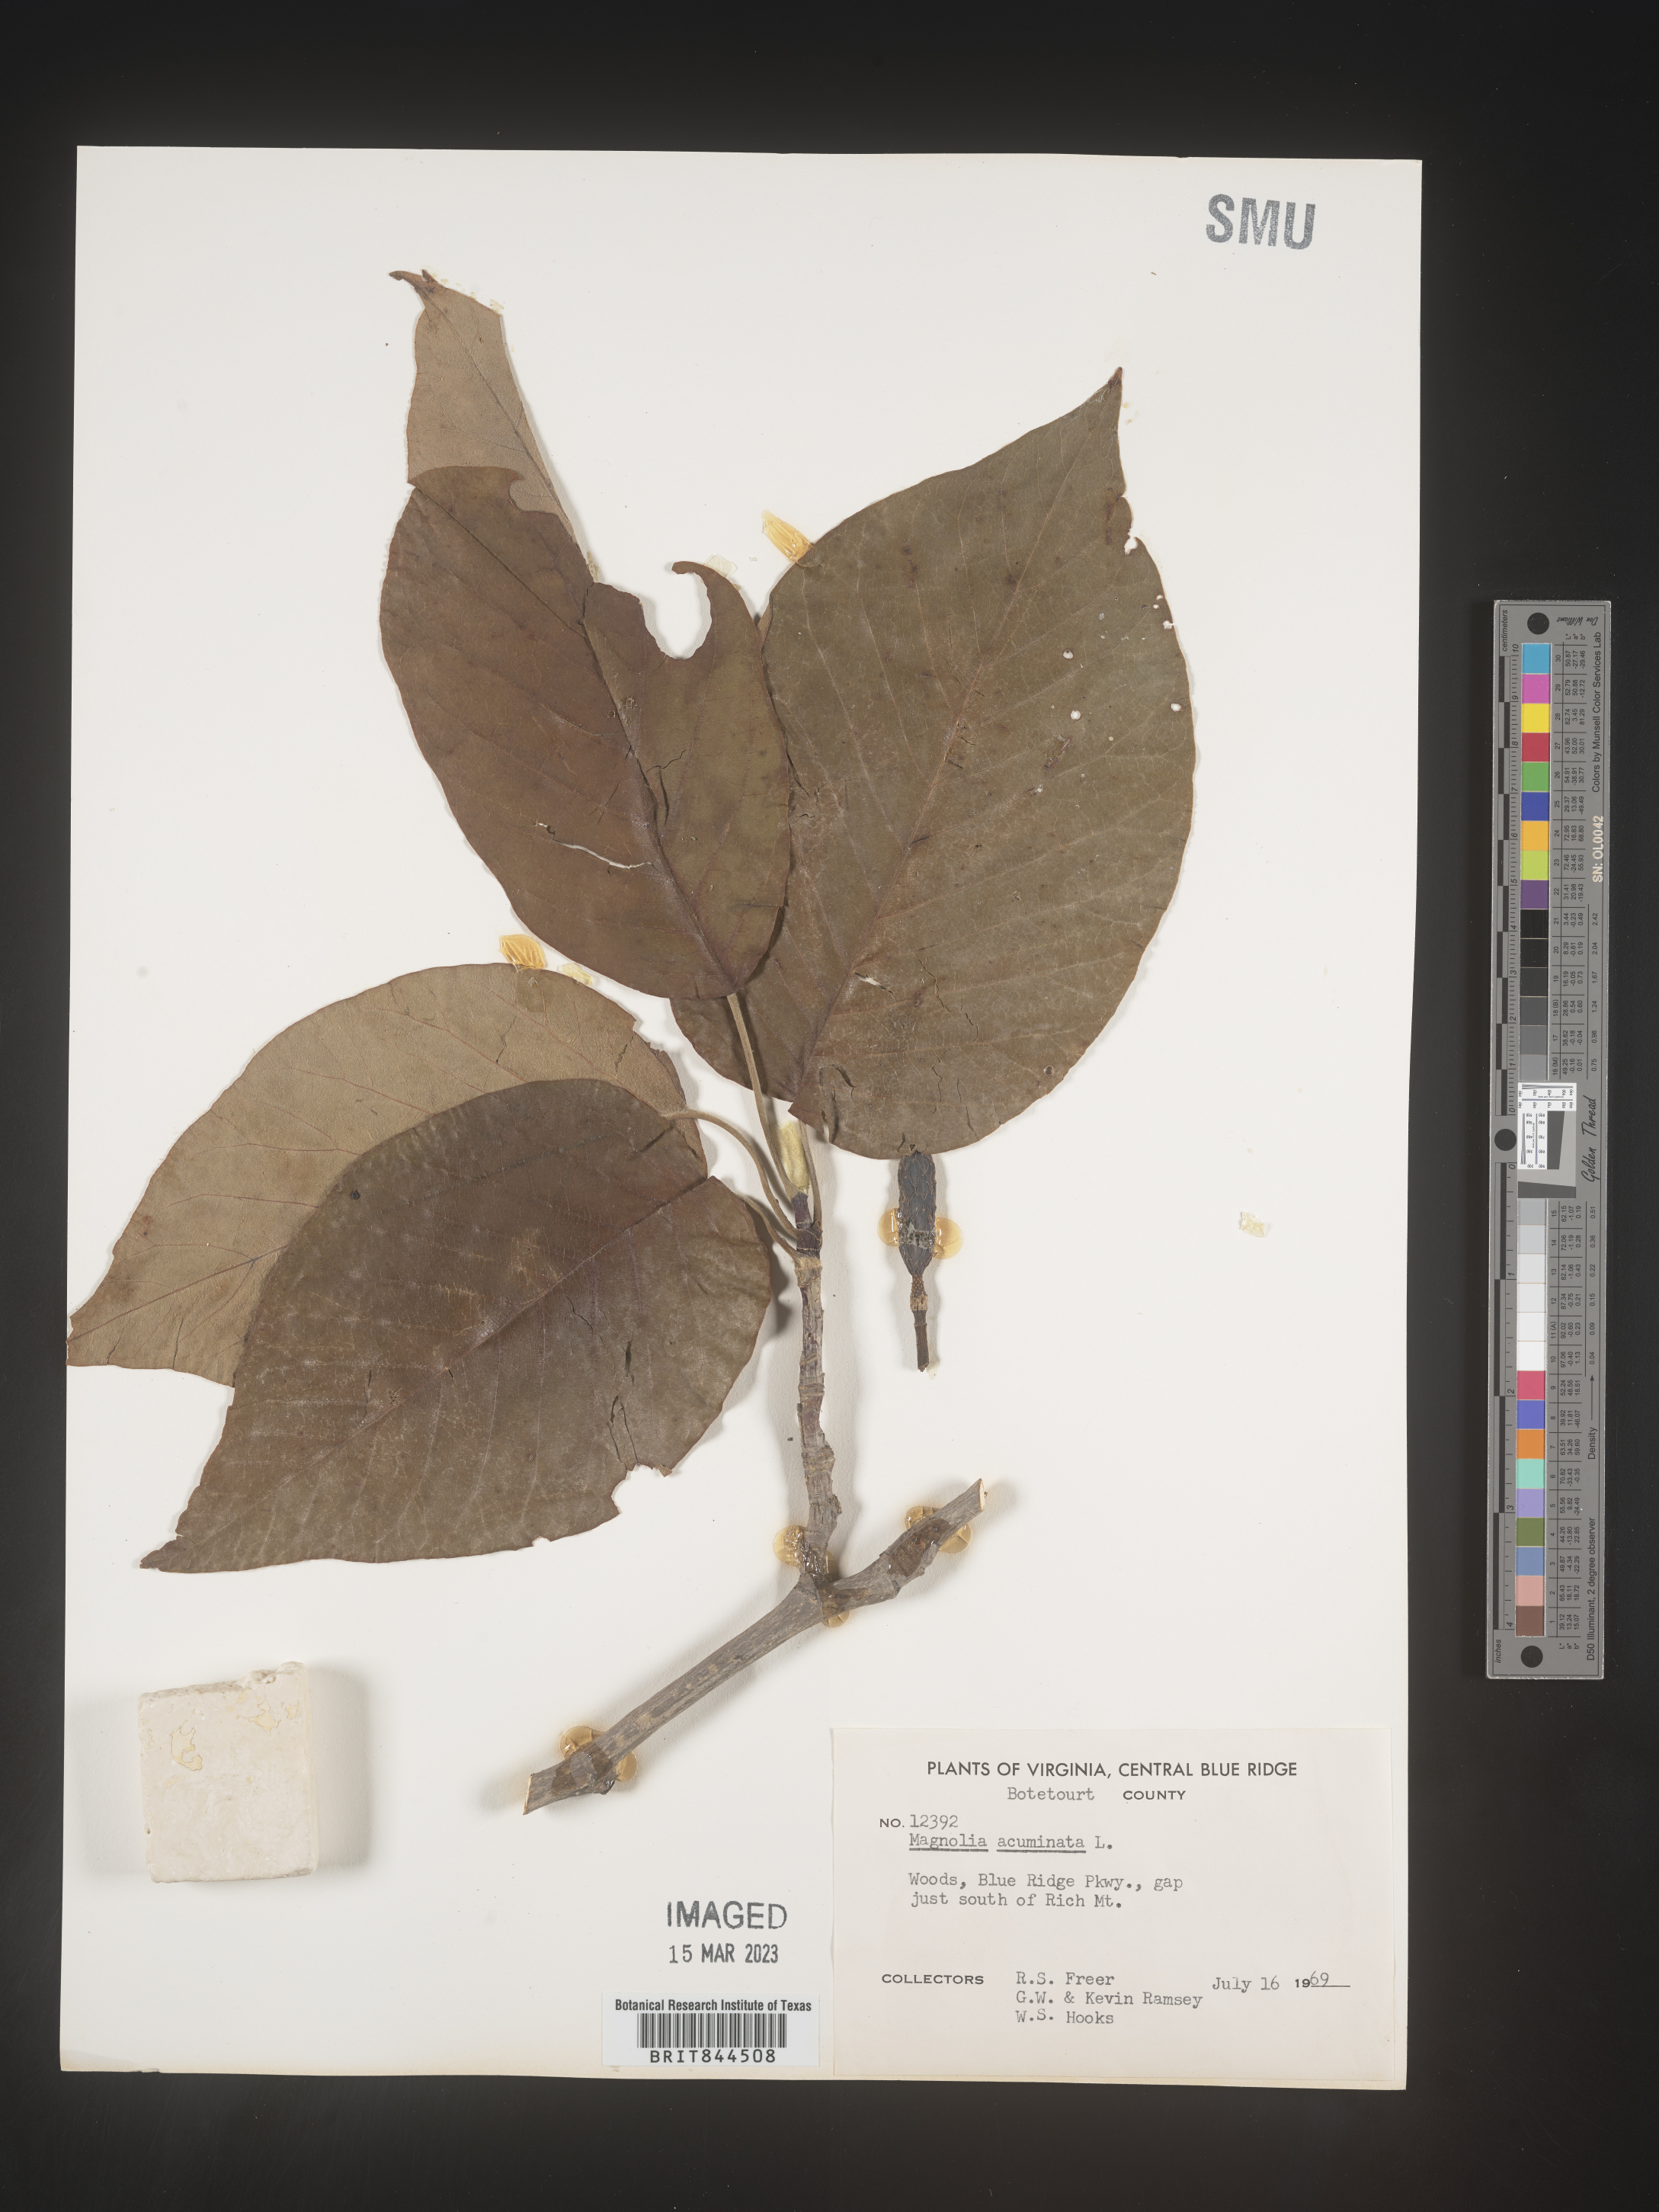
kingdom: Plantae
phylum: Tracheophyta
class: Magnoliopsida
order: Magnoliales
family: Magnoliaceae
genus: Magnolia
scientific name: Magnolia acuminata
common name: Cucumber magnolia
